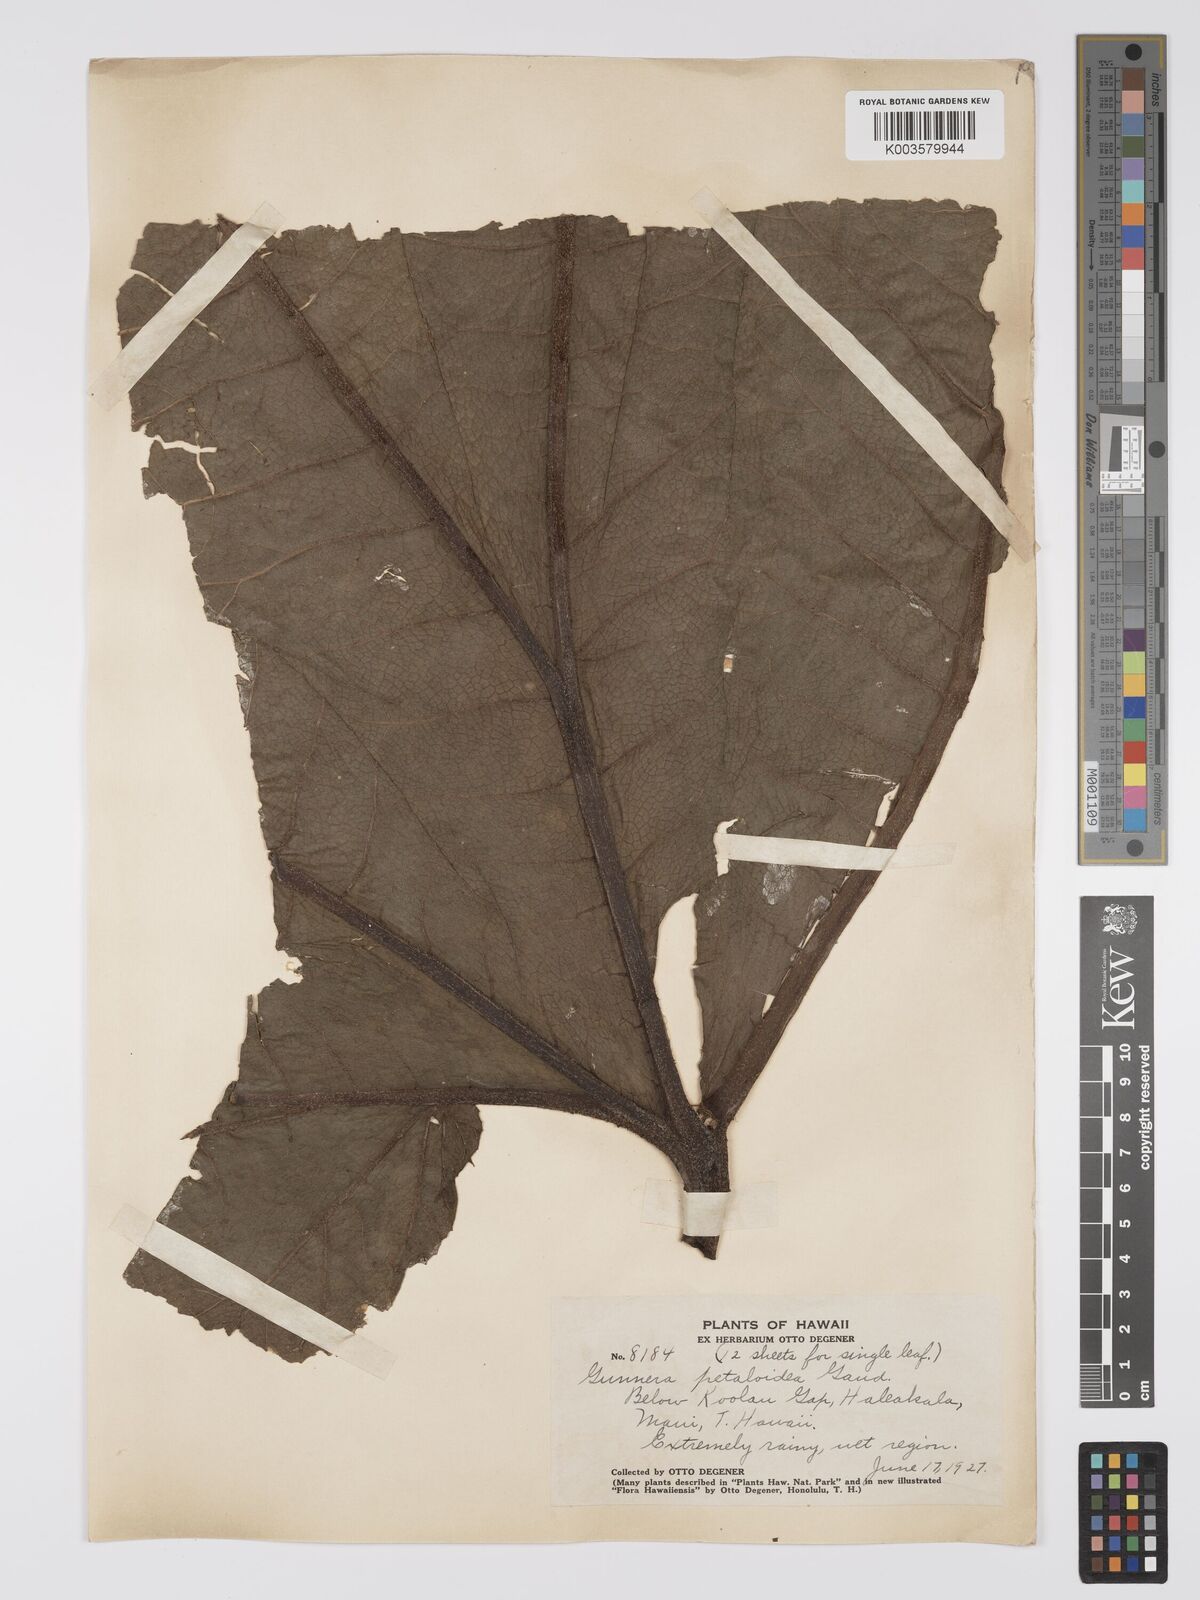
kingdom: Plantae
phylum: Tracheophyta
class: Magnoliopsida
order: Gunnerales
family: Gunneraceae
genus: Gunnera
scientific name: Gunnera petaloidea
